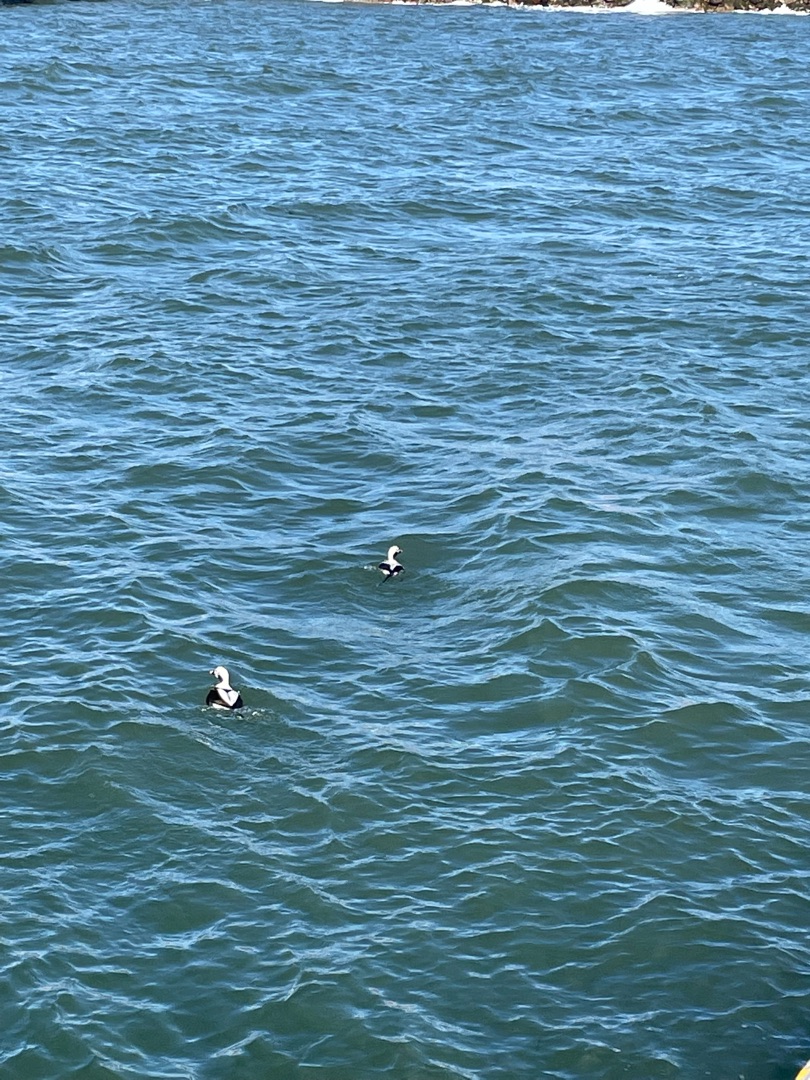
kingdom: Animalia
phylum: Chordata
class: Aves
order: Anseriformes
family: Anatidae
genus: Clangula
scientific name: Clangula hyemalis
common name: Havlit
